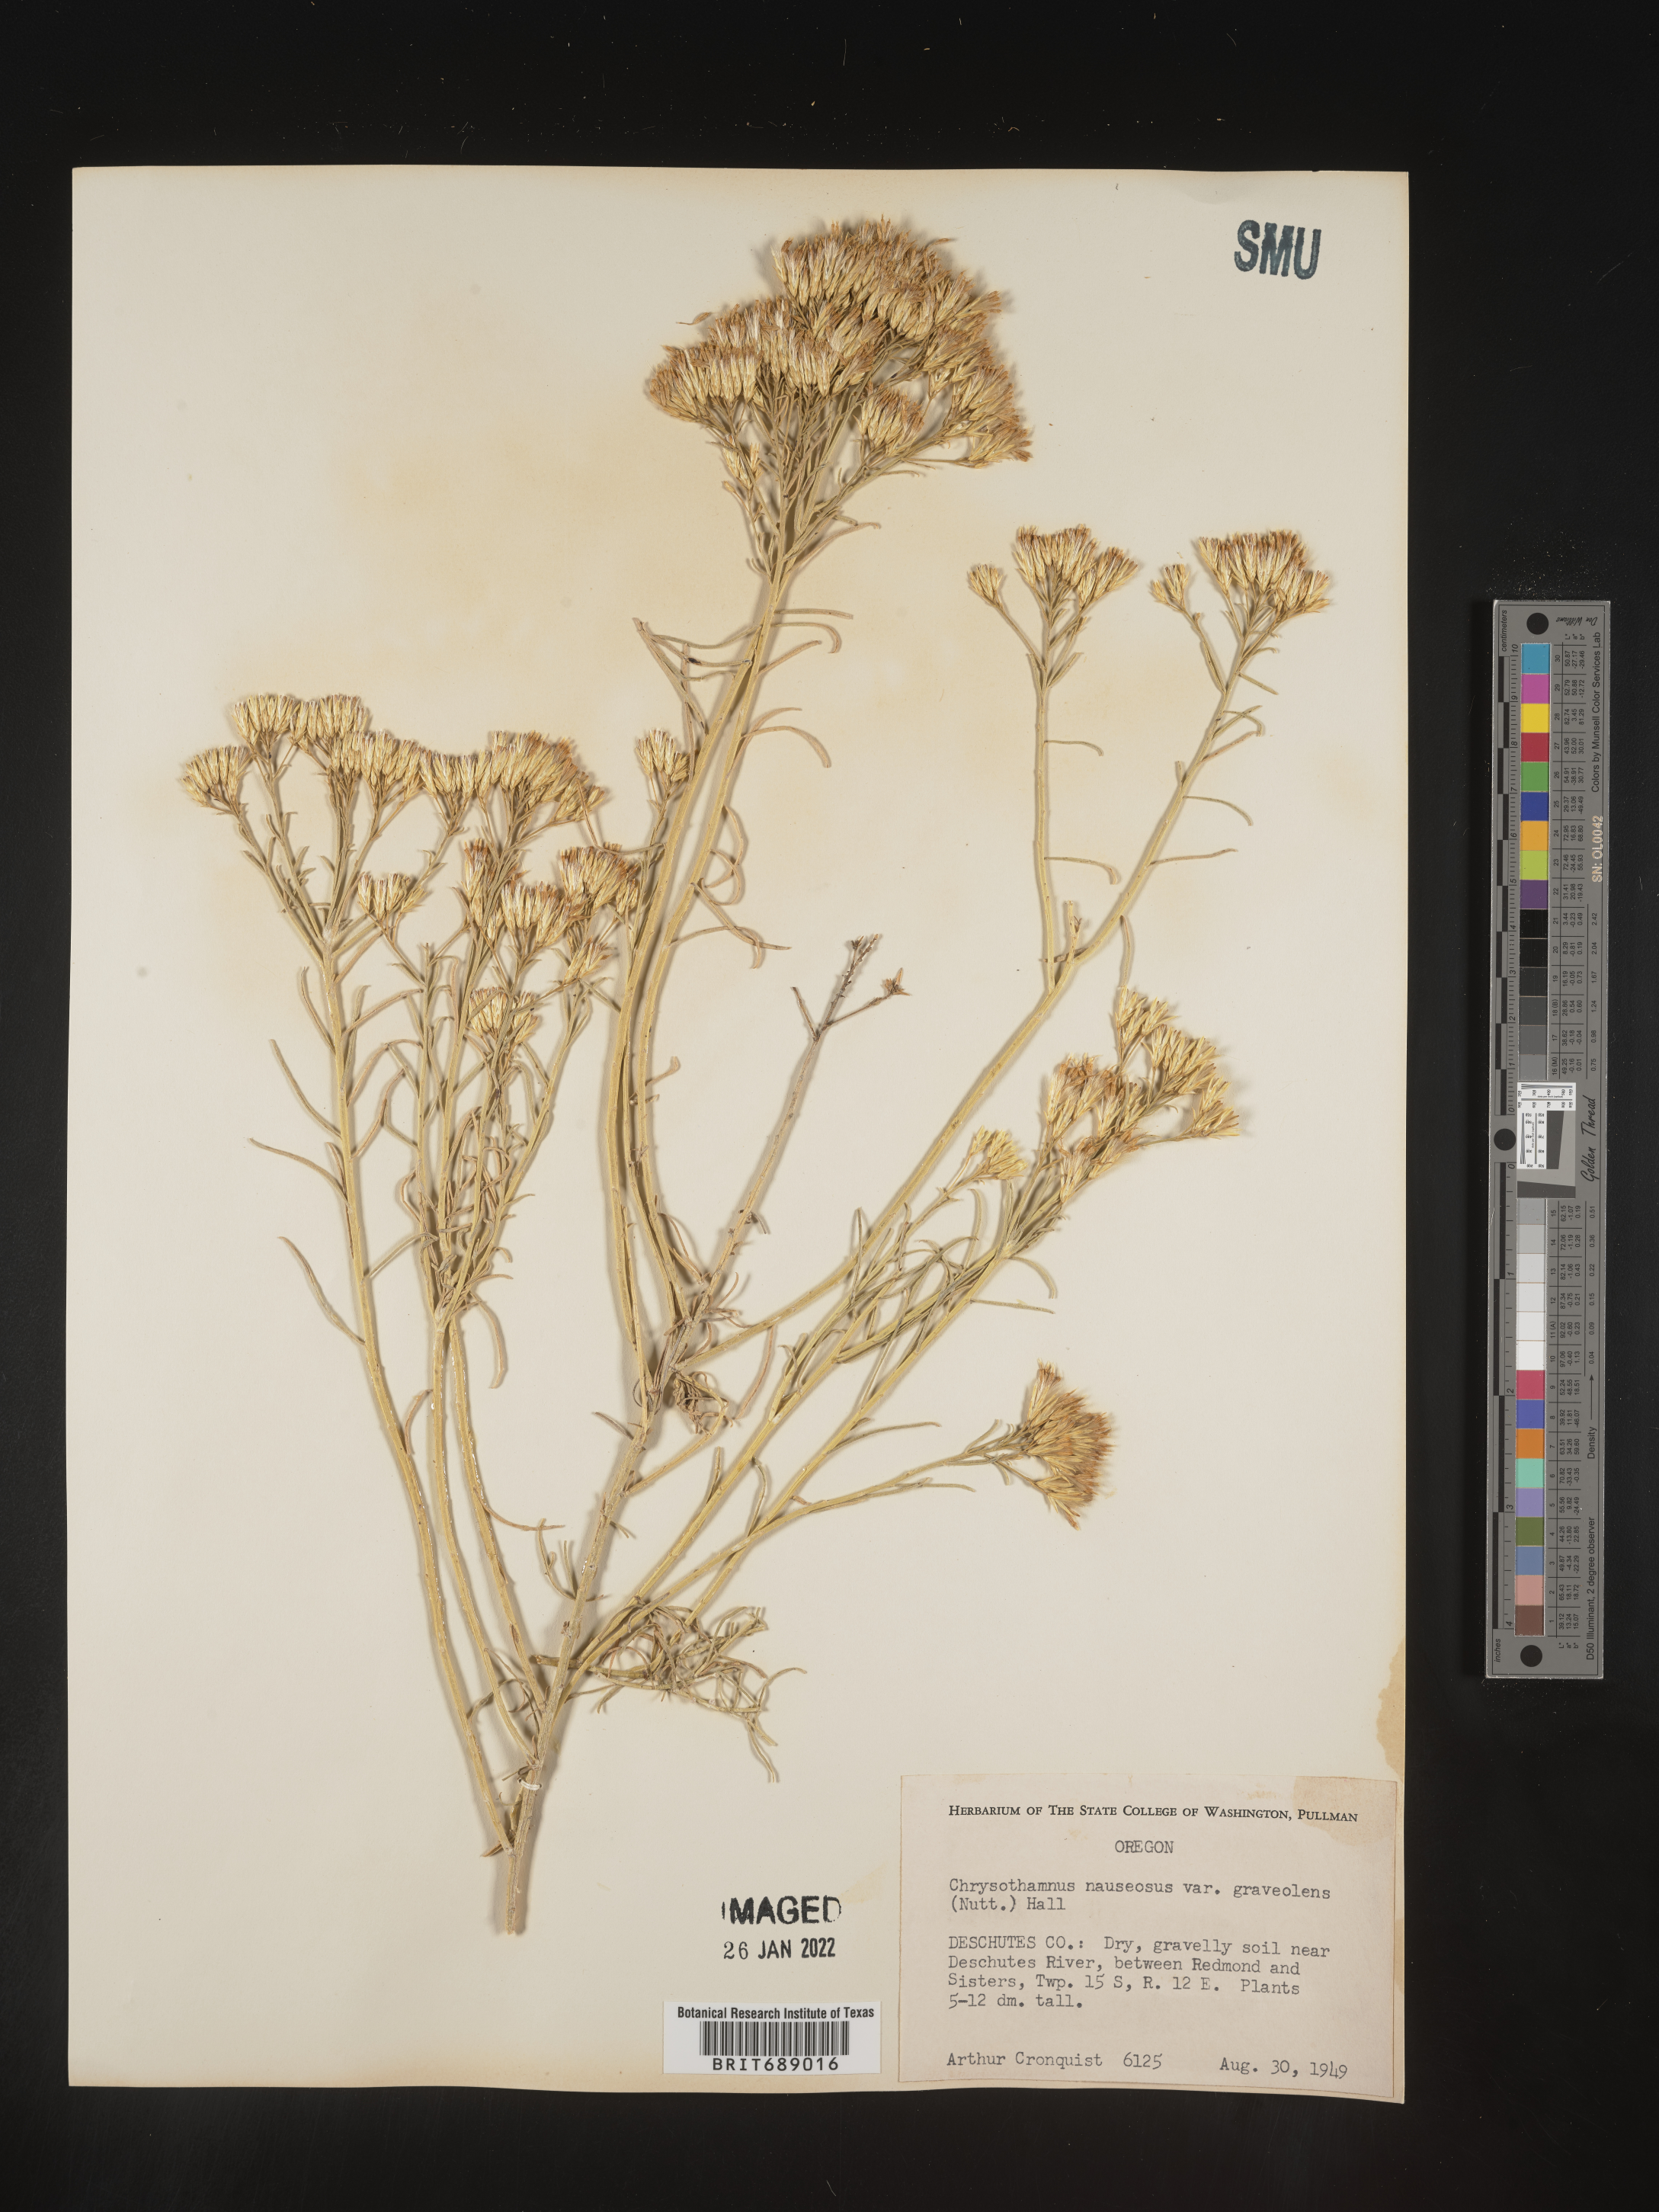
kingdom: Plantae
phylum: Tracheophyta
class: Magnoliopsida
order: Asterales
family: Asteraceae
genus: Ericameria
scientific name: Ericameria nauseosa
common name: Rubber rabbitbrush
